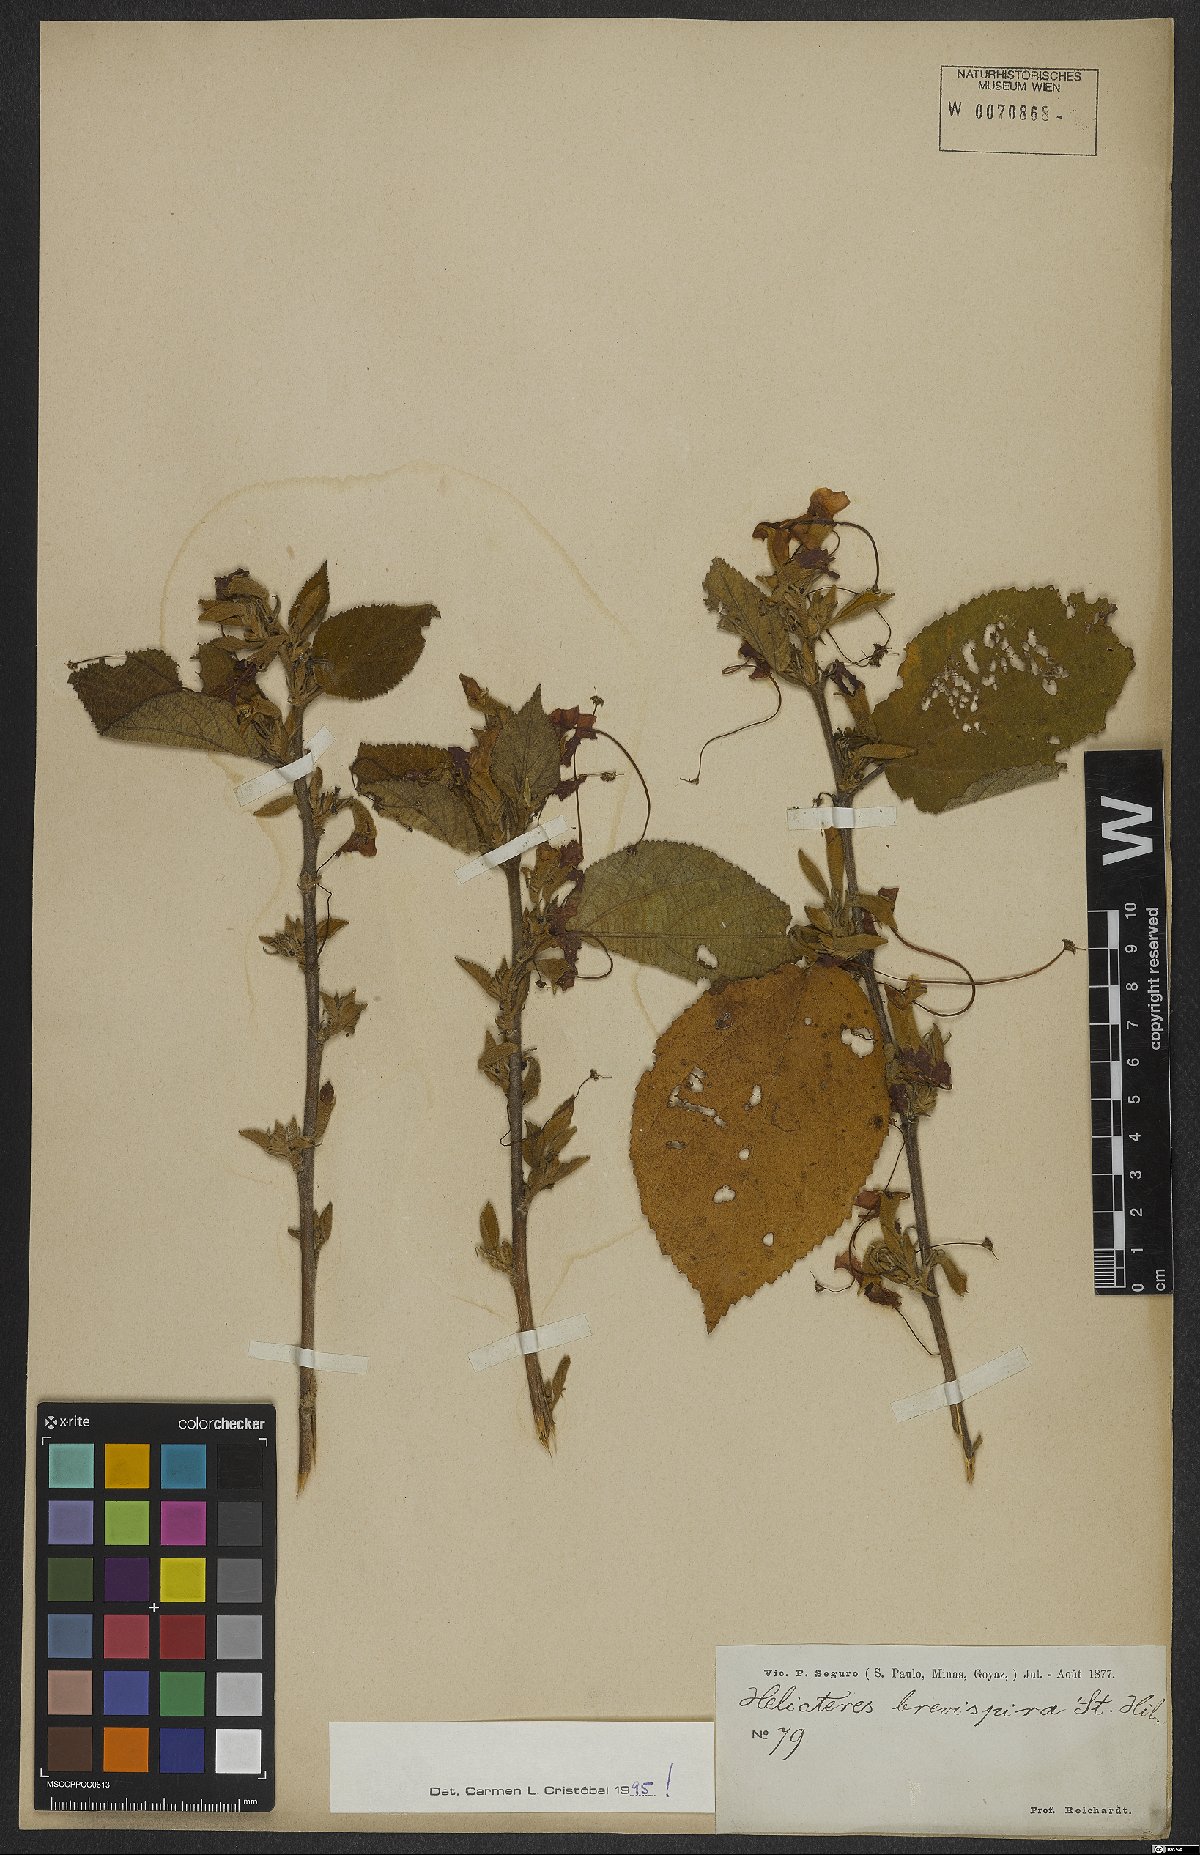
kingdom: Plantae
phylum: Tracheophyta
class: Magnoliopsida
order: Malvales
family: Malvaceae
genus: Helicteres
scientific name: Helicteres brevispira
